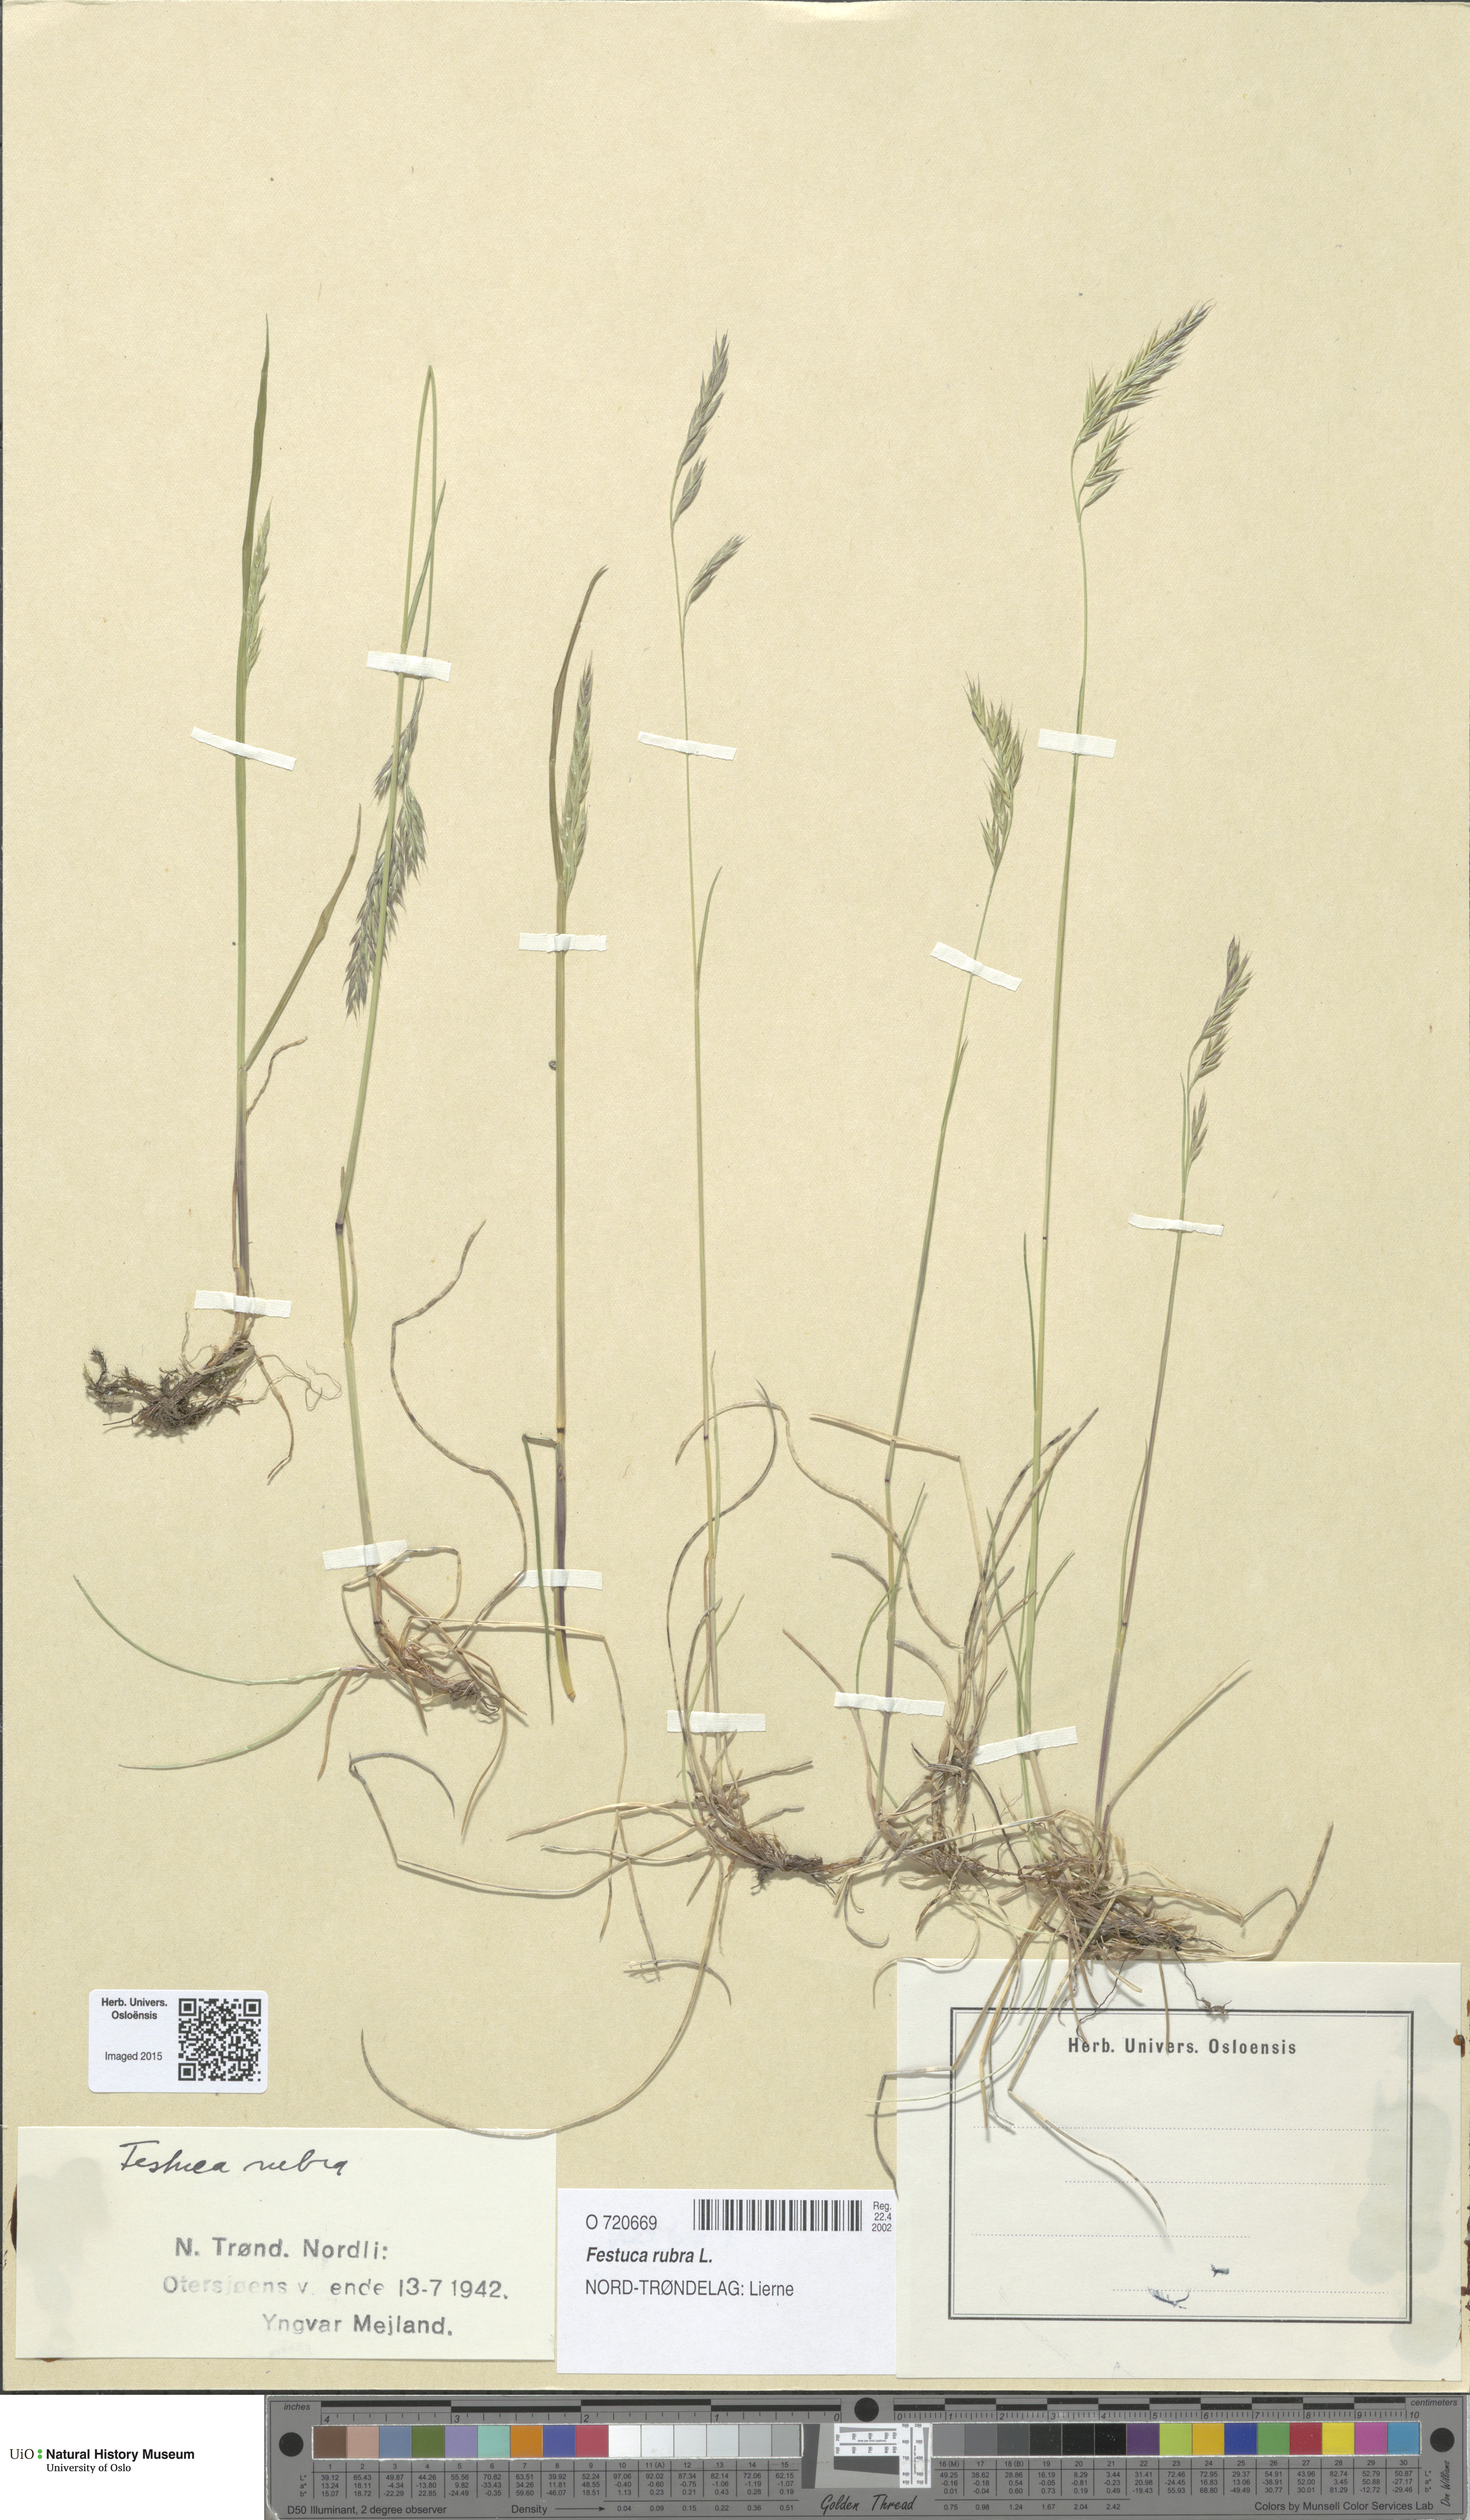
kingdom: Plantae
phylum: Tracheophyta
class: Liliopsida
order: Poales
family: Poaceae
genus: Festuca
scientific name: Festuca rubra
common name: Red fescue
